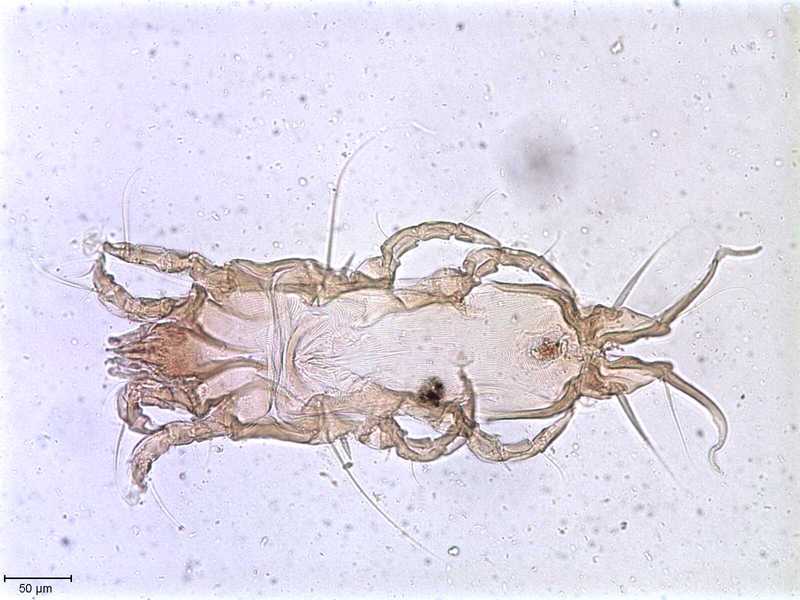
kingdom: Animalia
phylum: Arthropoda
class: Arachnida
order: Sarcoptiformes
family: Proctophyllodidae
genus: Proctophyllodes
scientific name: Proctophyllodes hylocichlae
